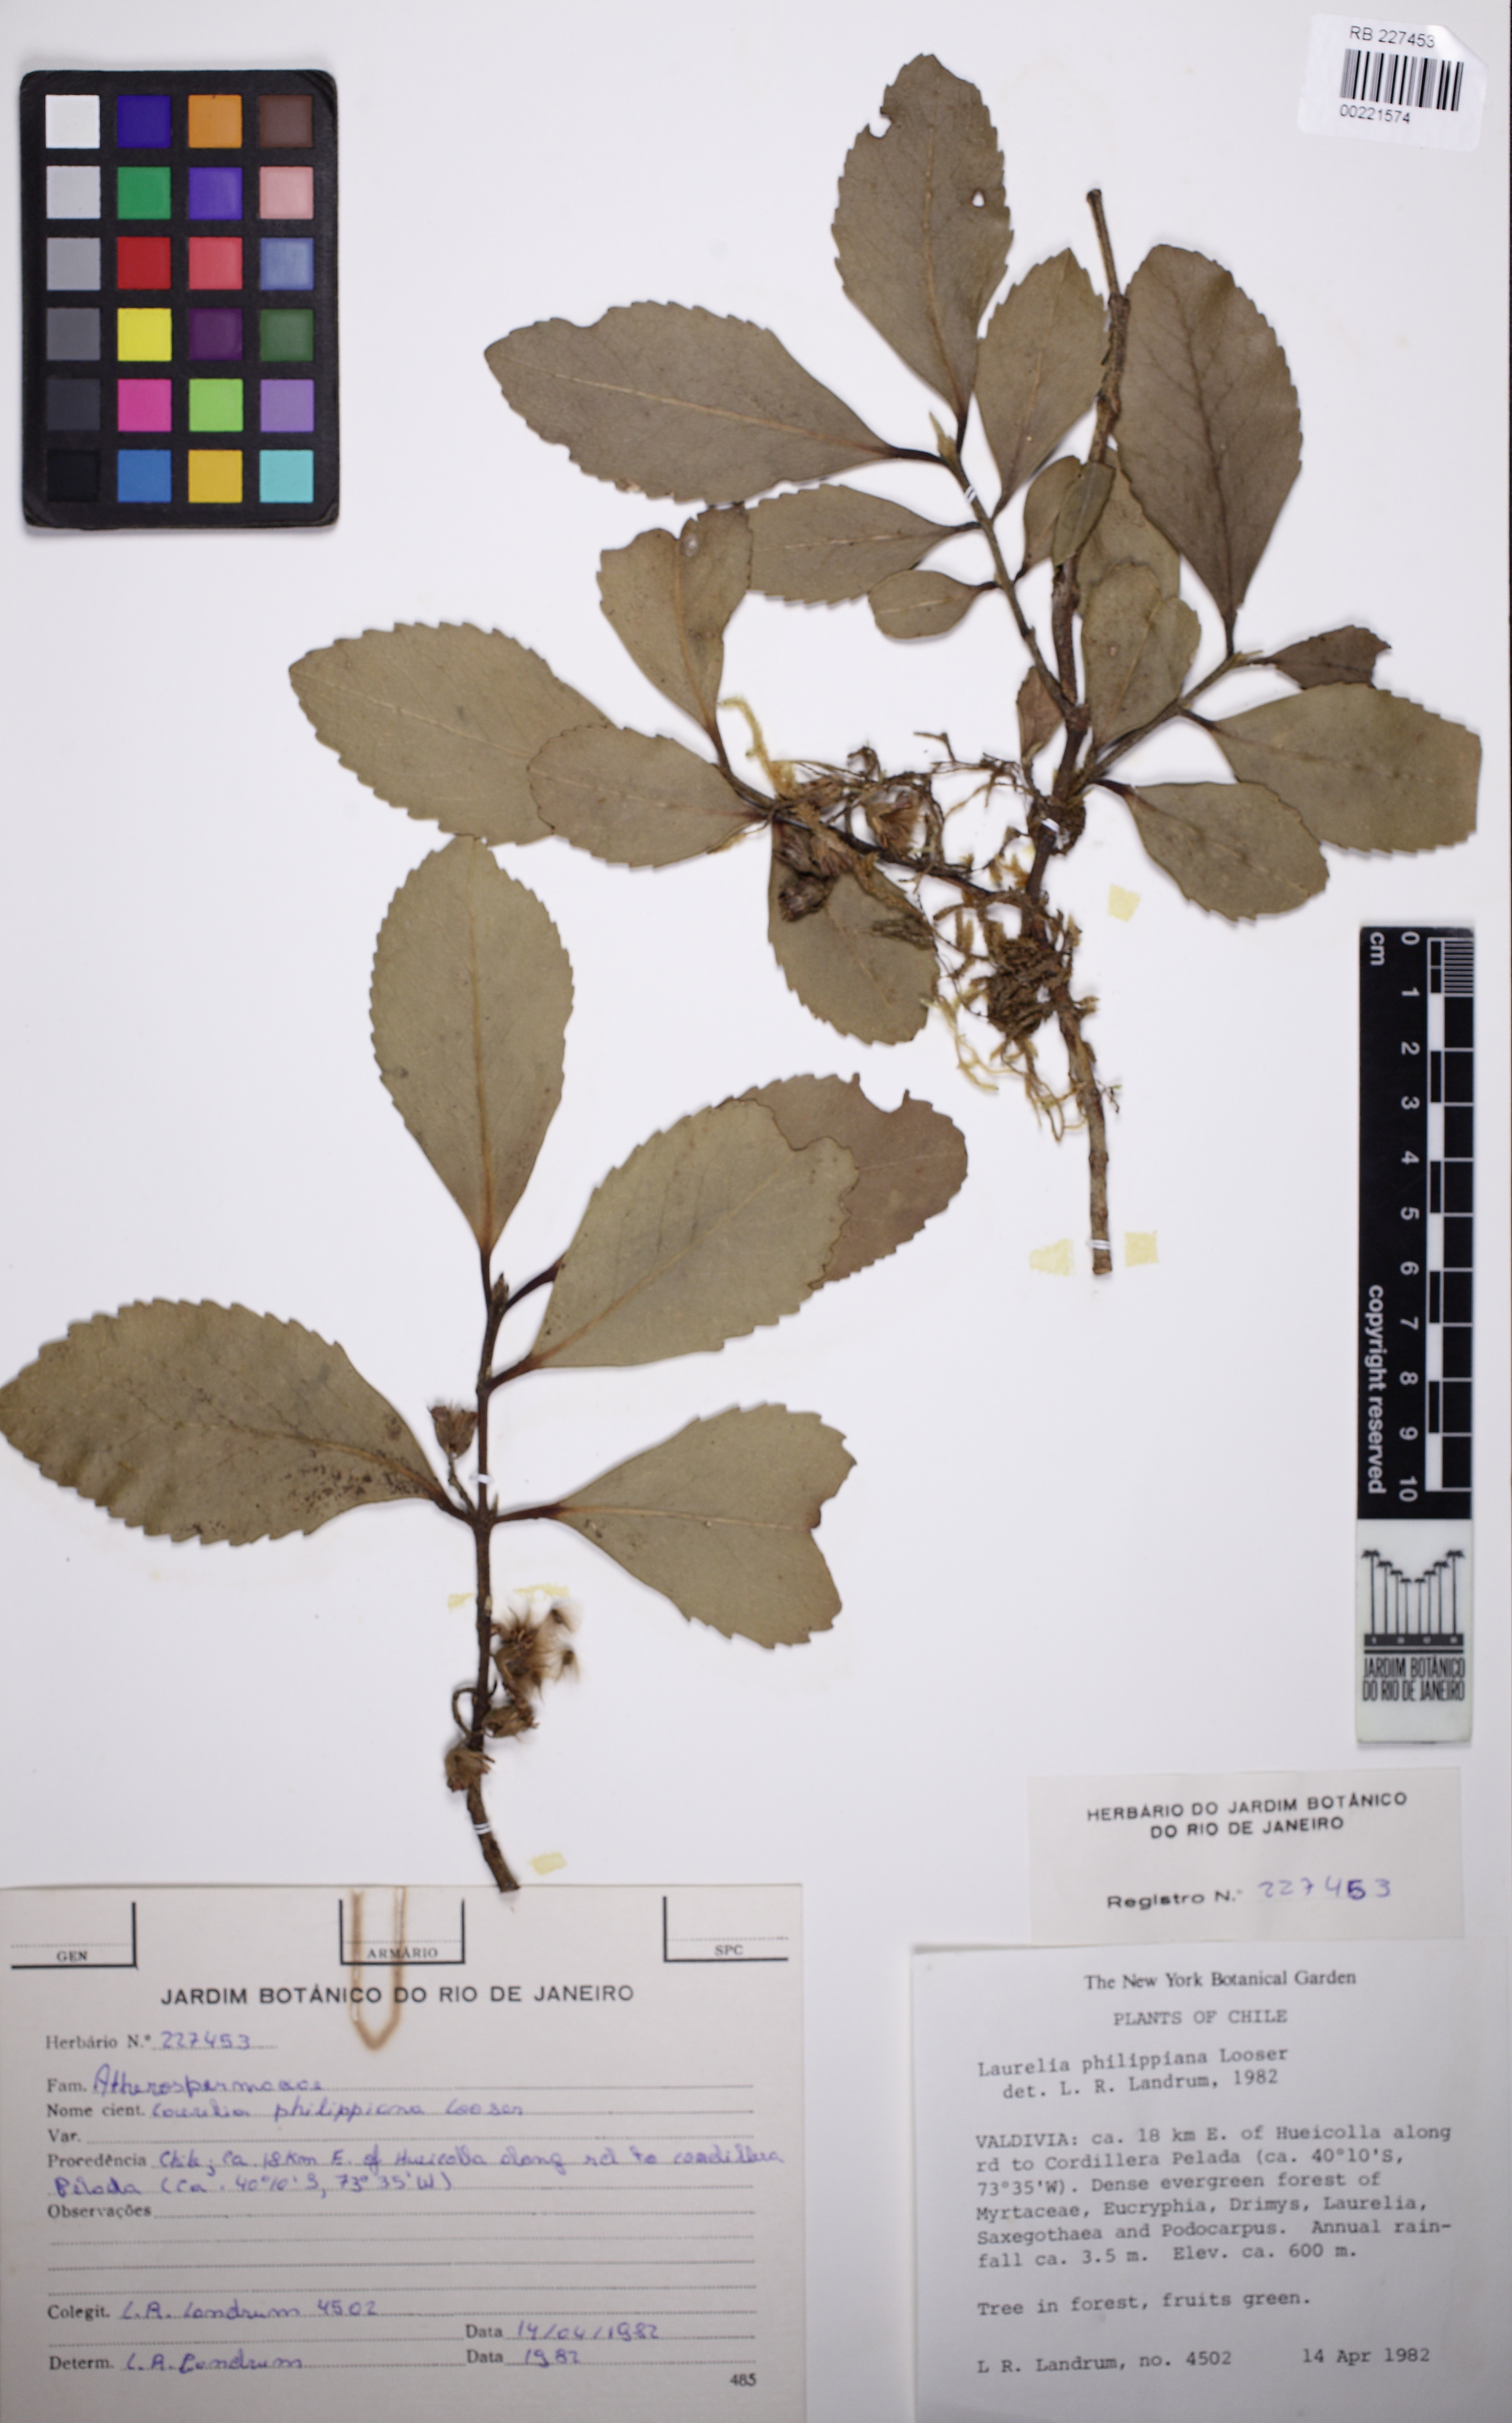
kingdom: Plantae
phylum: Tracheophyta
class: Magnoliopsida
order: Laurales
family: Atherospermataceae
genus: Laureliopsis
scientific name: Laureliopsis philippiana
